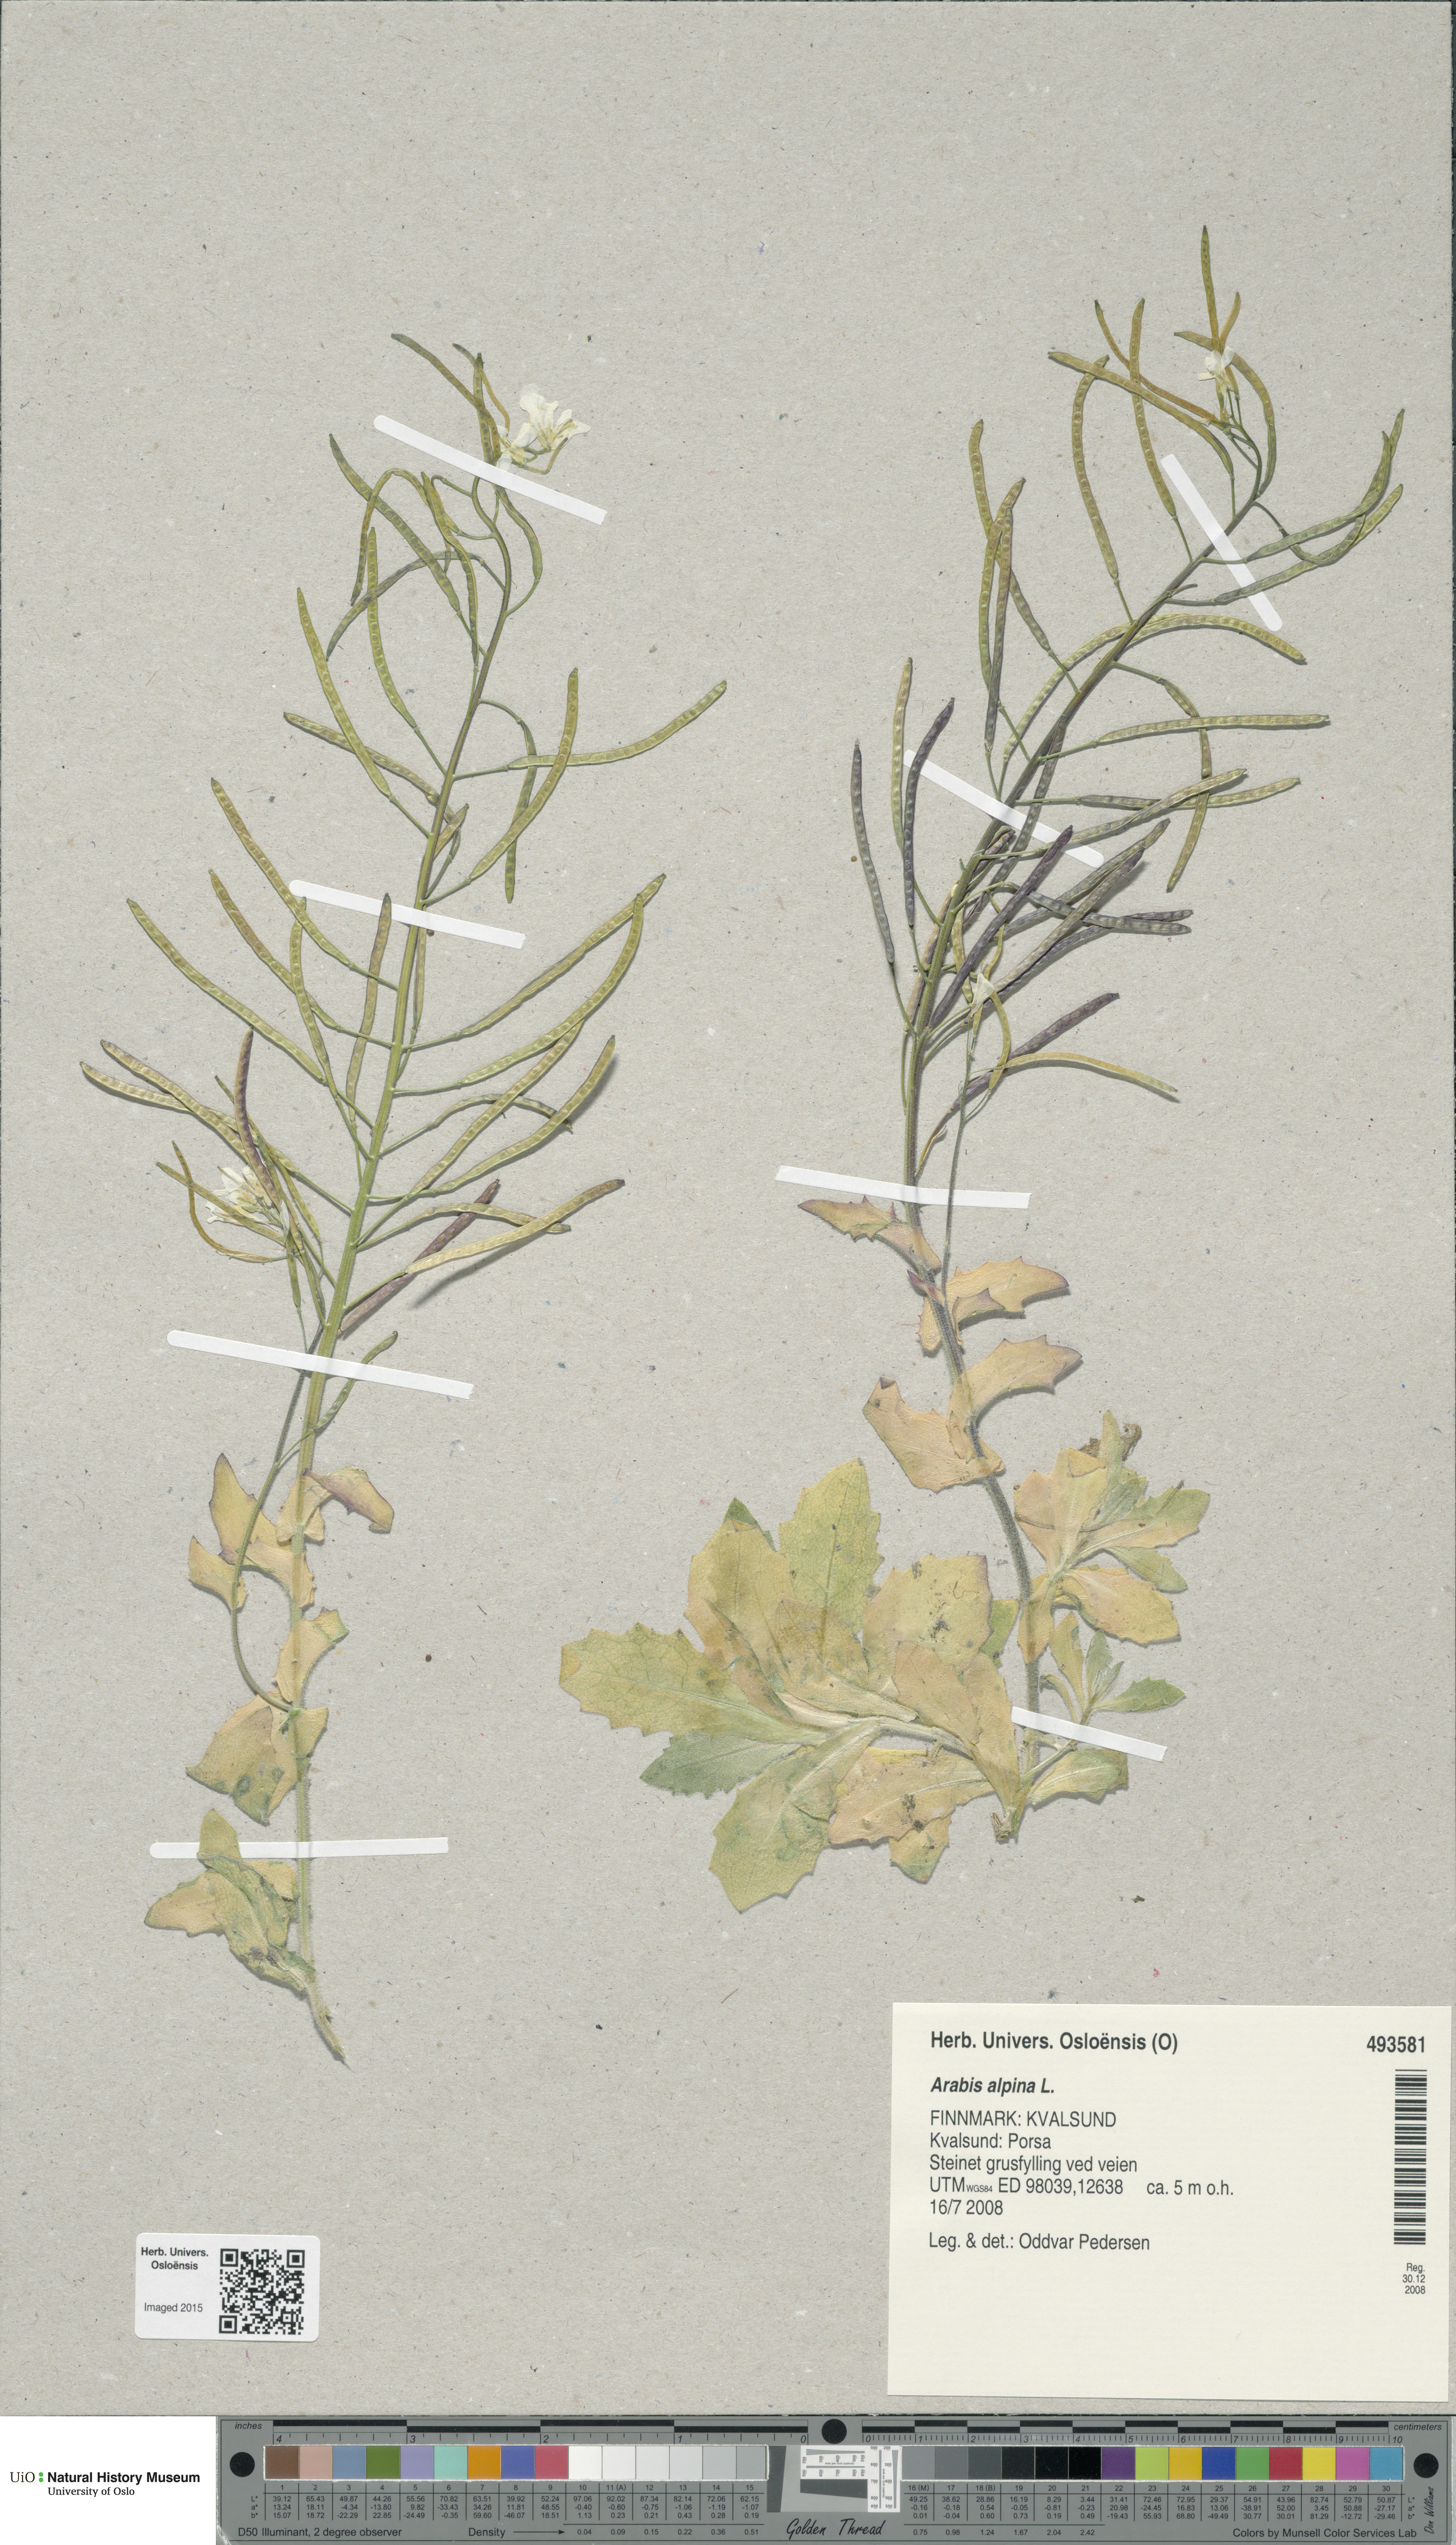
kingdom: Plantae
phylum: Tracheophyta
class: Magnoliopsida
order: Brassicales
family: Brassicaceae
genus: Arabis
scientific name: Arabis alpina
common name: Alpine rock-cress
